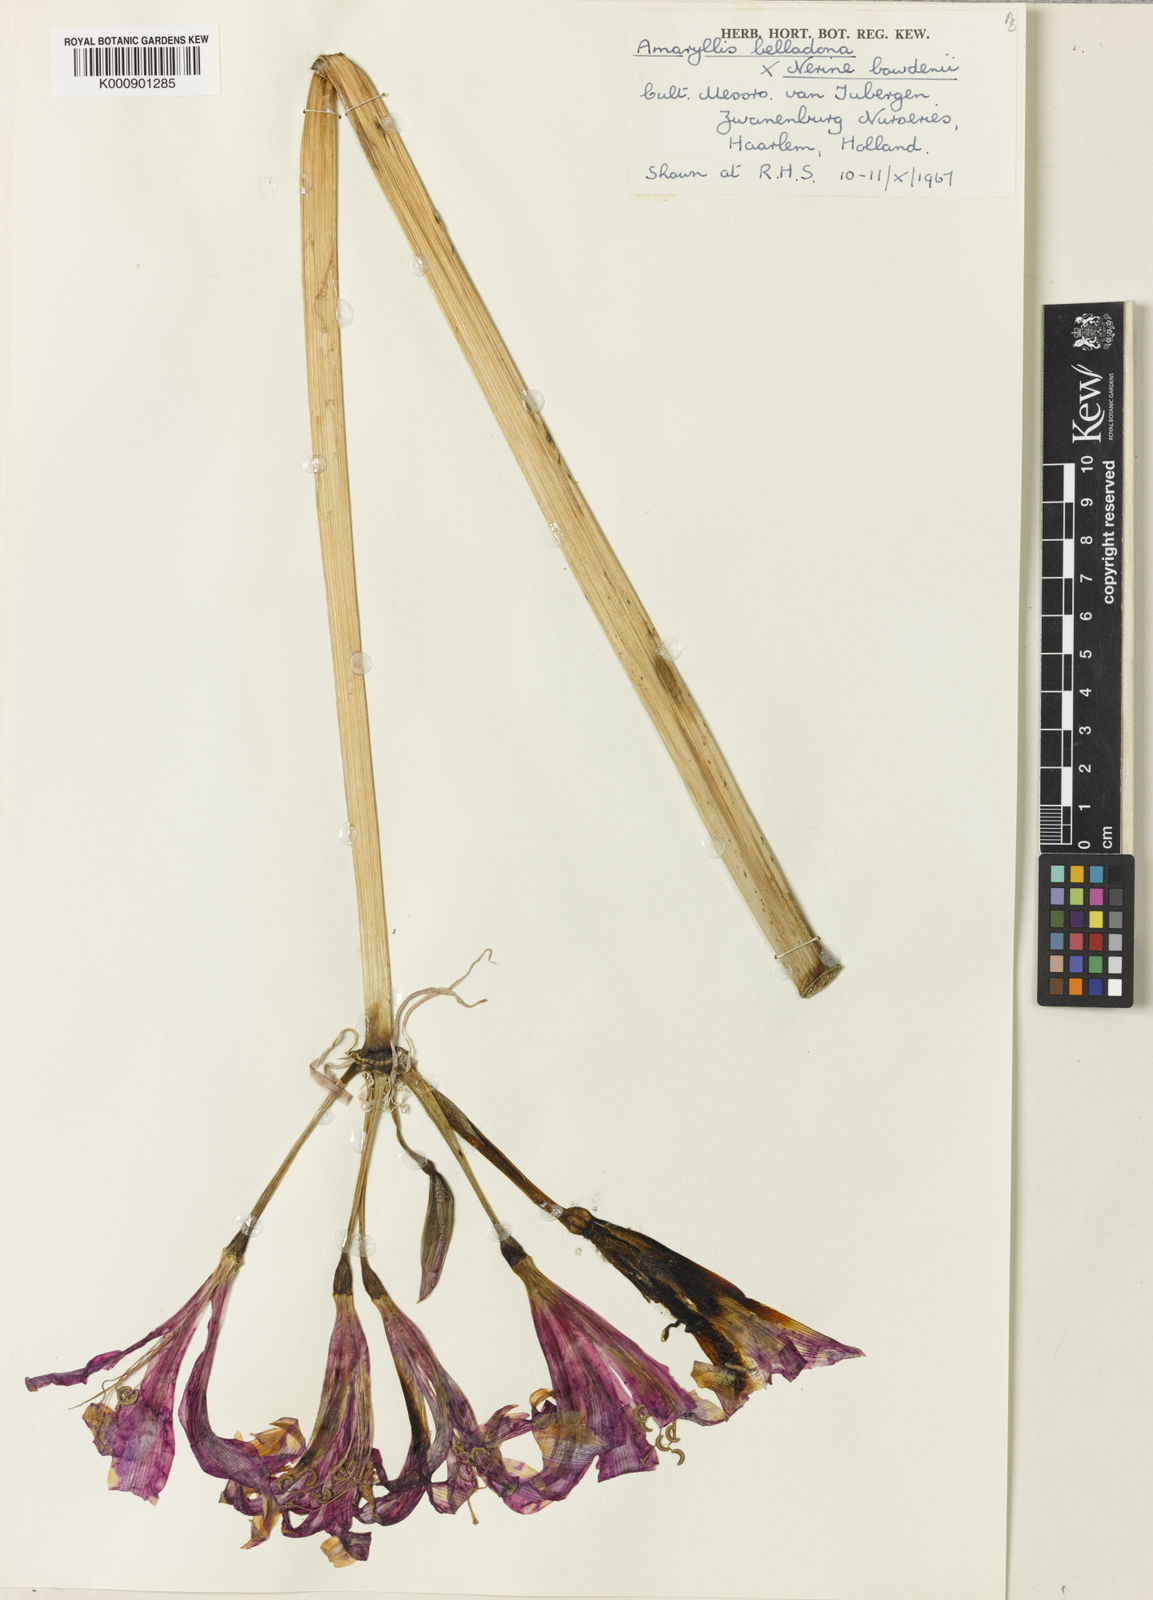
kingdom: Plantae
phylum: Tracheophyta
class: Liliopsida
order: Asparagales
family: Amaryllidaceae
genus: Amarine
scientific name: Amarine tubergenii
